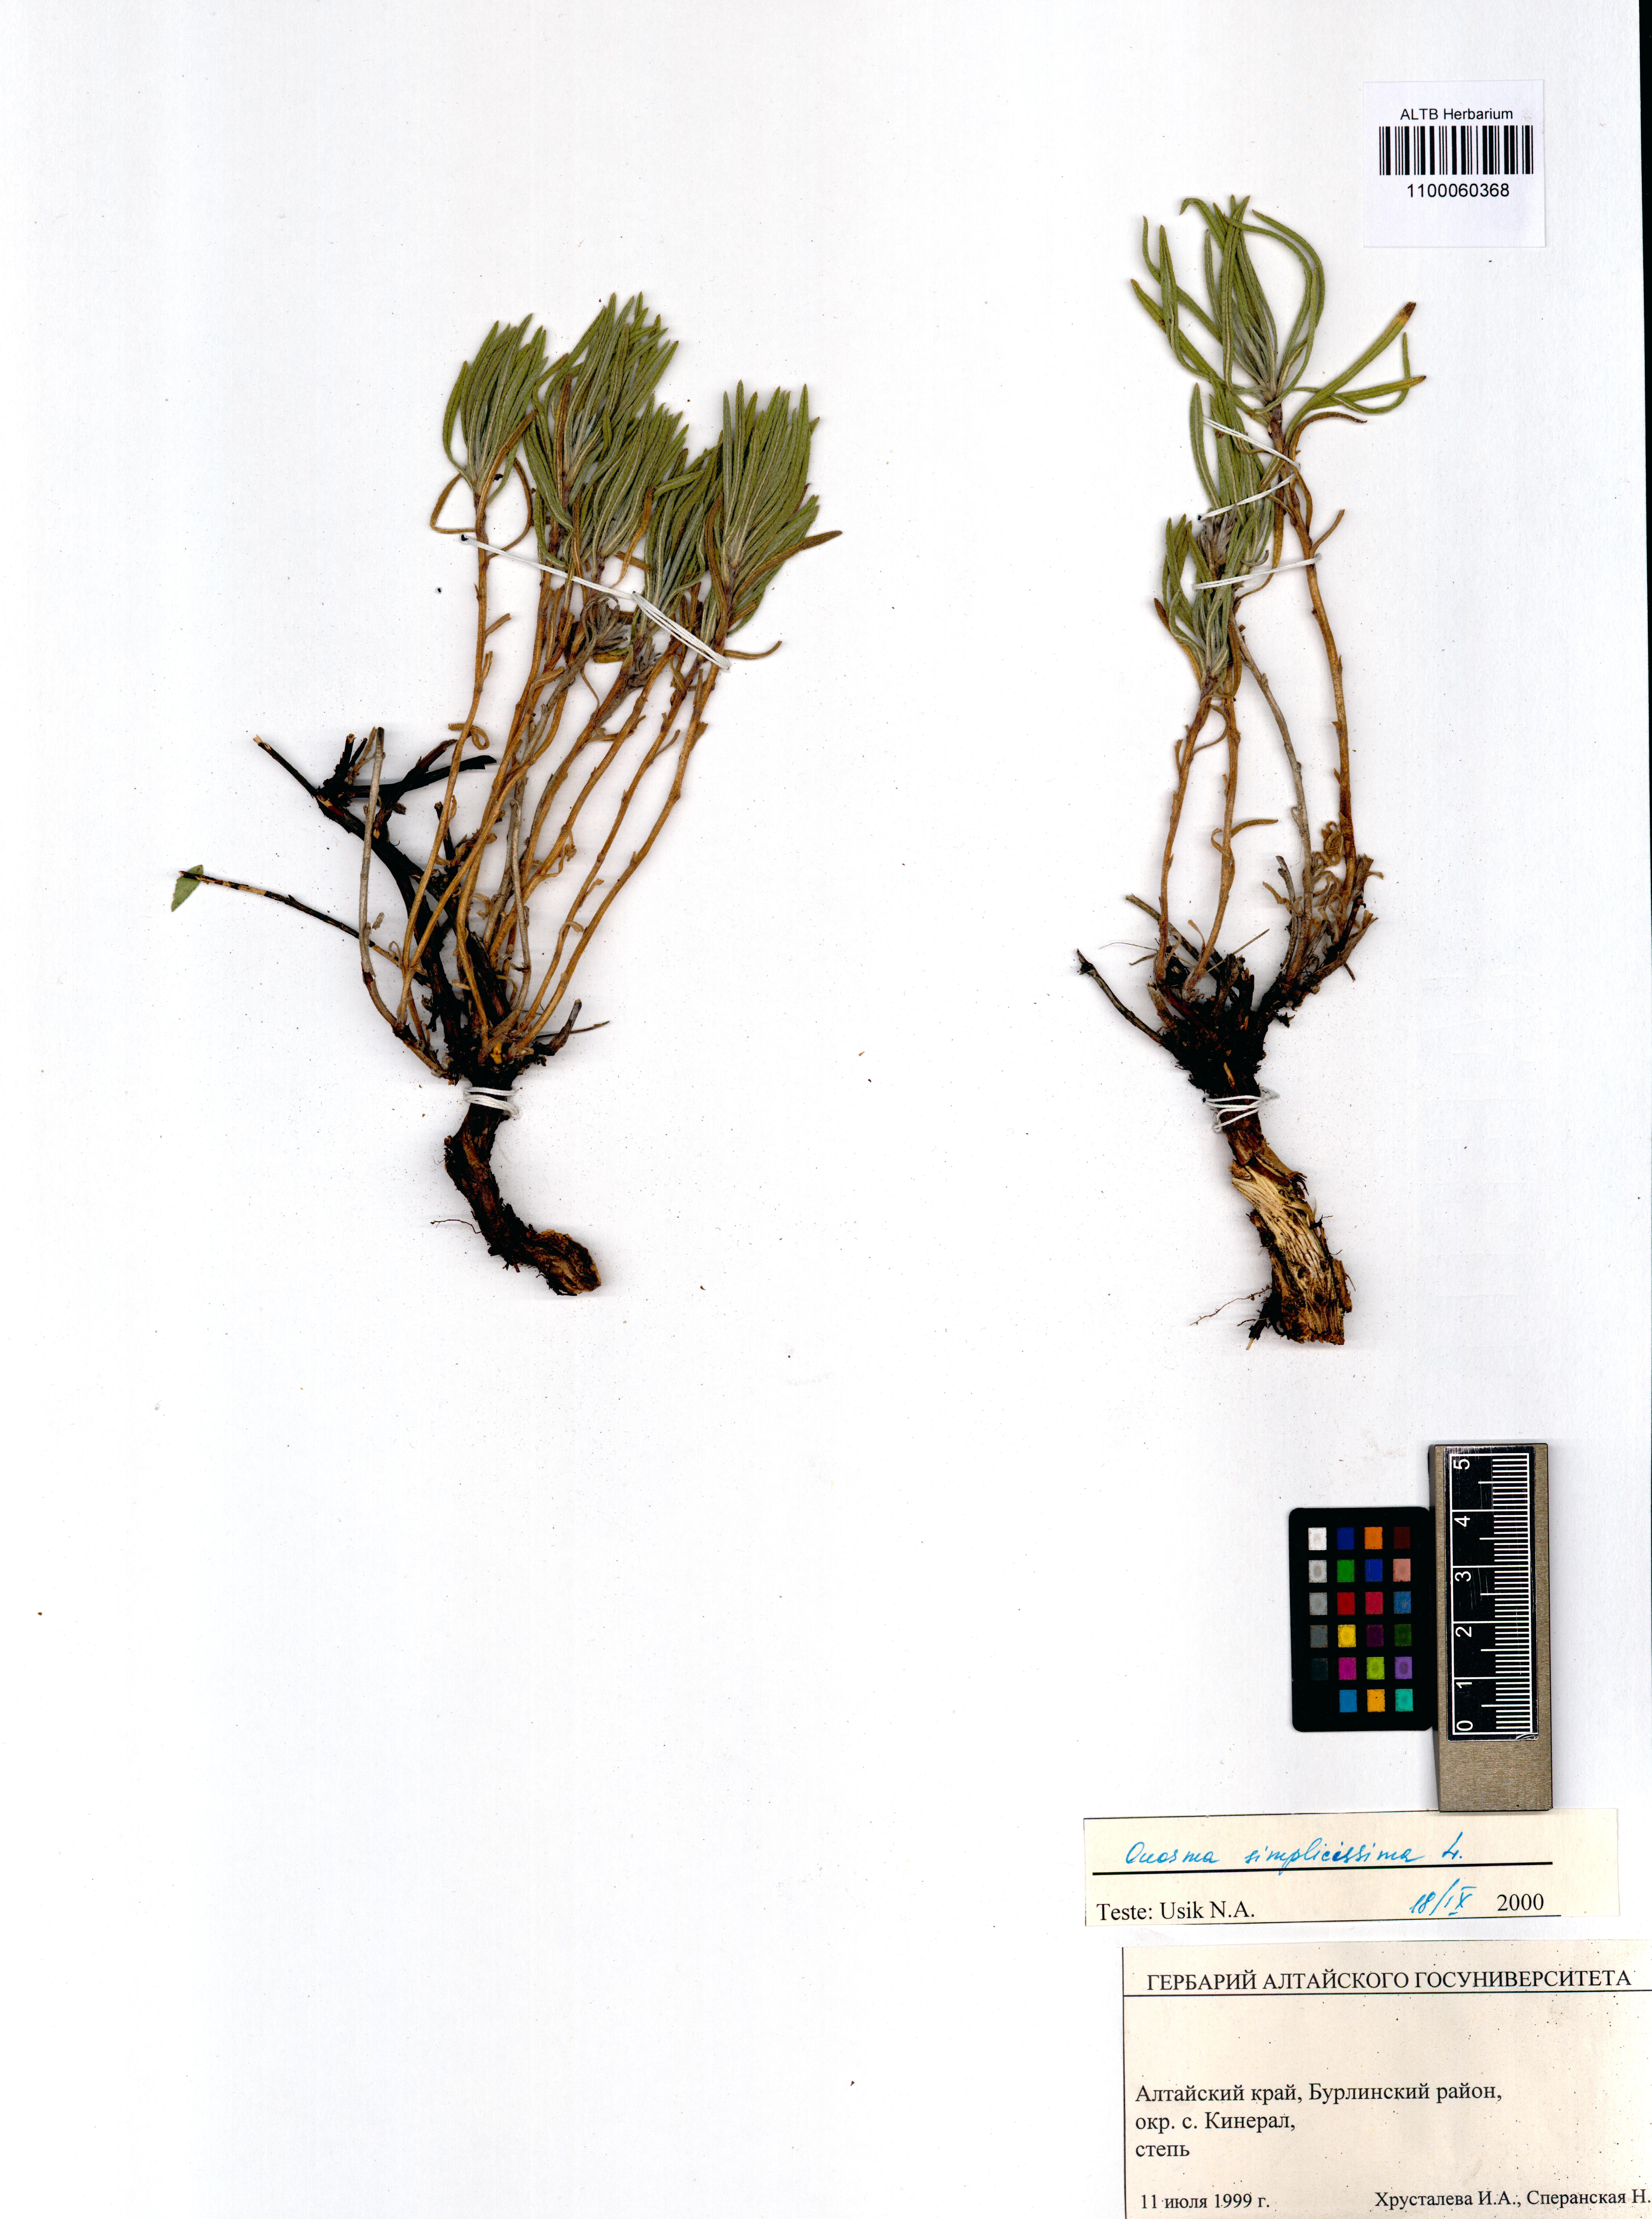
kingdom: Plantae
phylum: Tracheophyta
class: Magnoliopsida
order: Boraginales
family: Boraginaceae
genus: Onosma
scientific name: Onosma simplicissima
